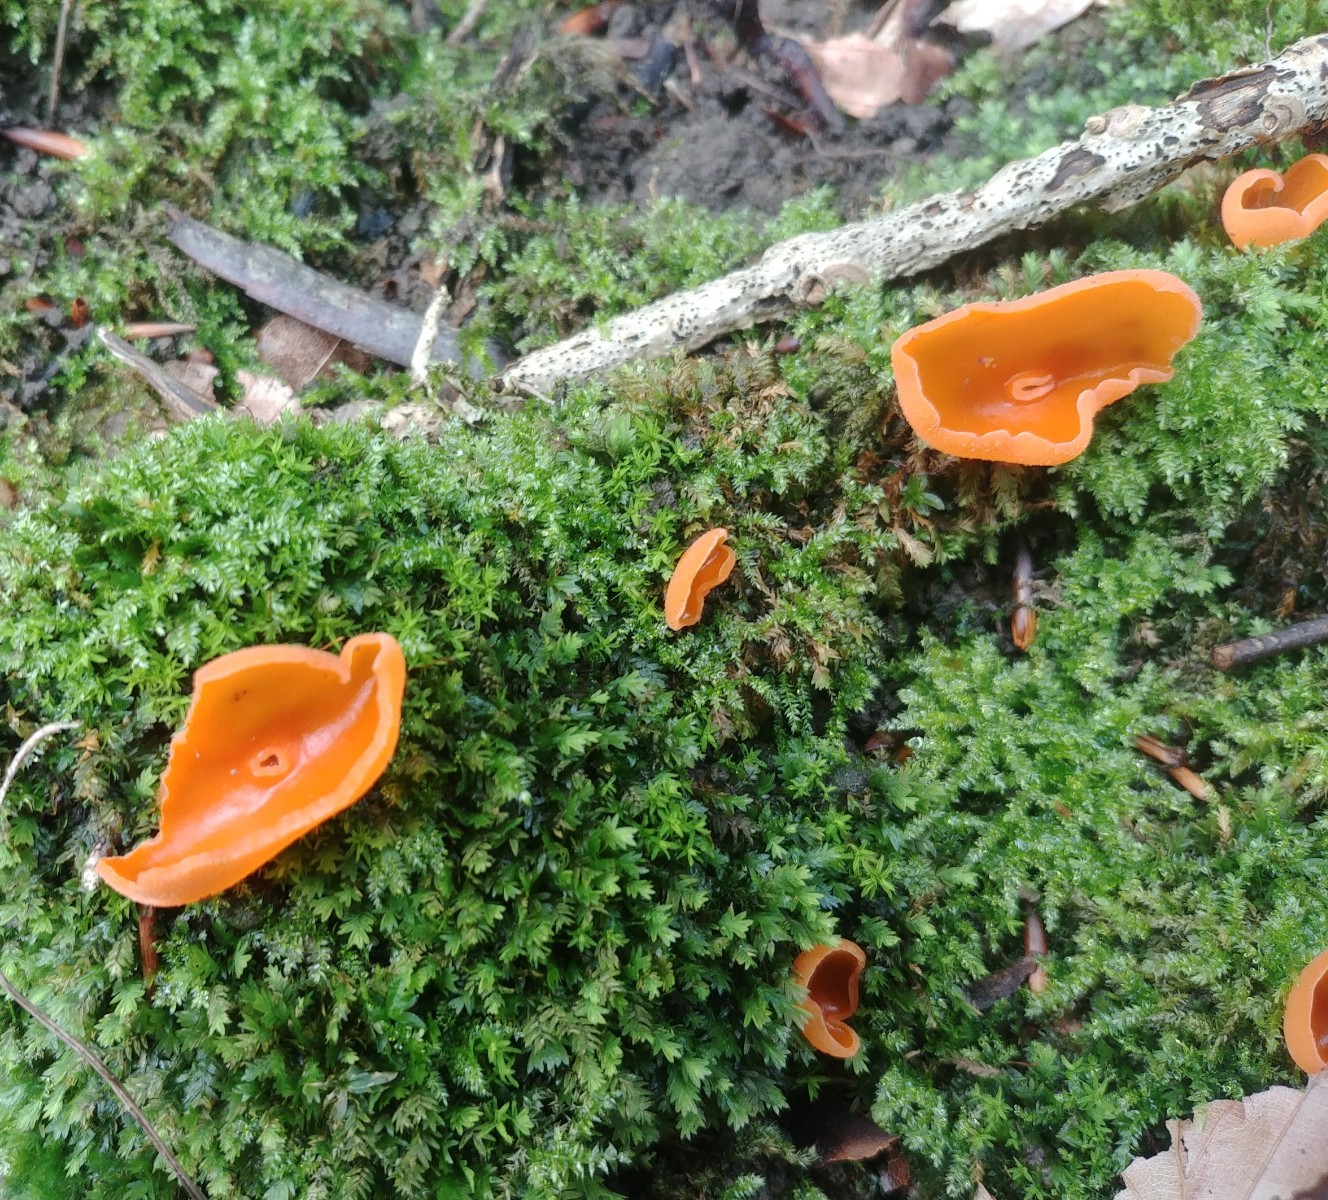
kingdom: Fungi
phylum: Ascomycota
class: Pezizomycetes
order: Pezizales
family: Pyronemataceae
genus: Aleuria
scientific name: Aleuria aurantia
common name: almindelig orangebæger
